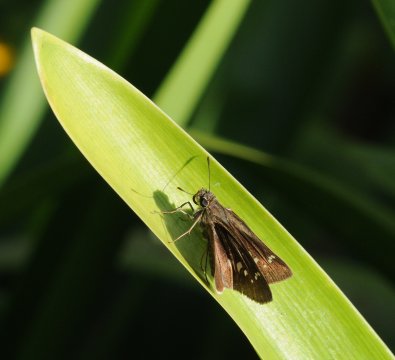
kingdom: Animalia
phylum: Arthropoda
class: Insecta
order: Lepidoptera
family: Hesperiidae
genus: Borbo
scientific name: Borbo borbonica
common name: Zeller's Skipper
